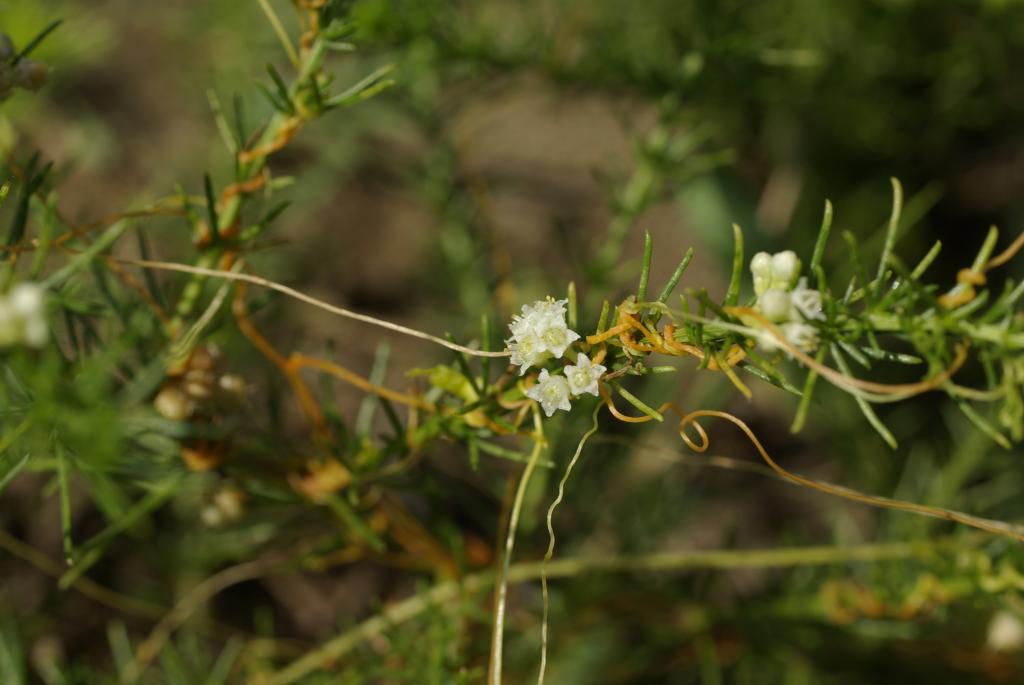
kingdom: Plantae
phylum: Tracheophyta
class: Magnoliopsida
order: Solanales
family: Convolvulaceae
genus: Cuscuta
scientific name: Cuscuta japonica
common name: Japanese dodder
